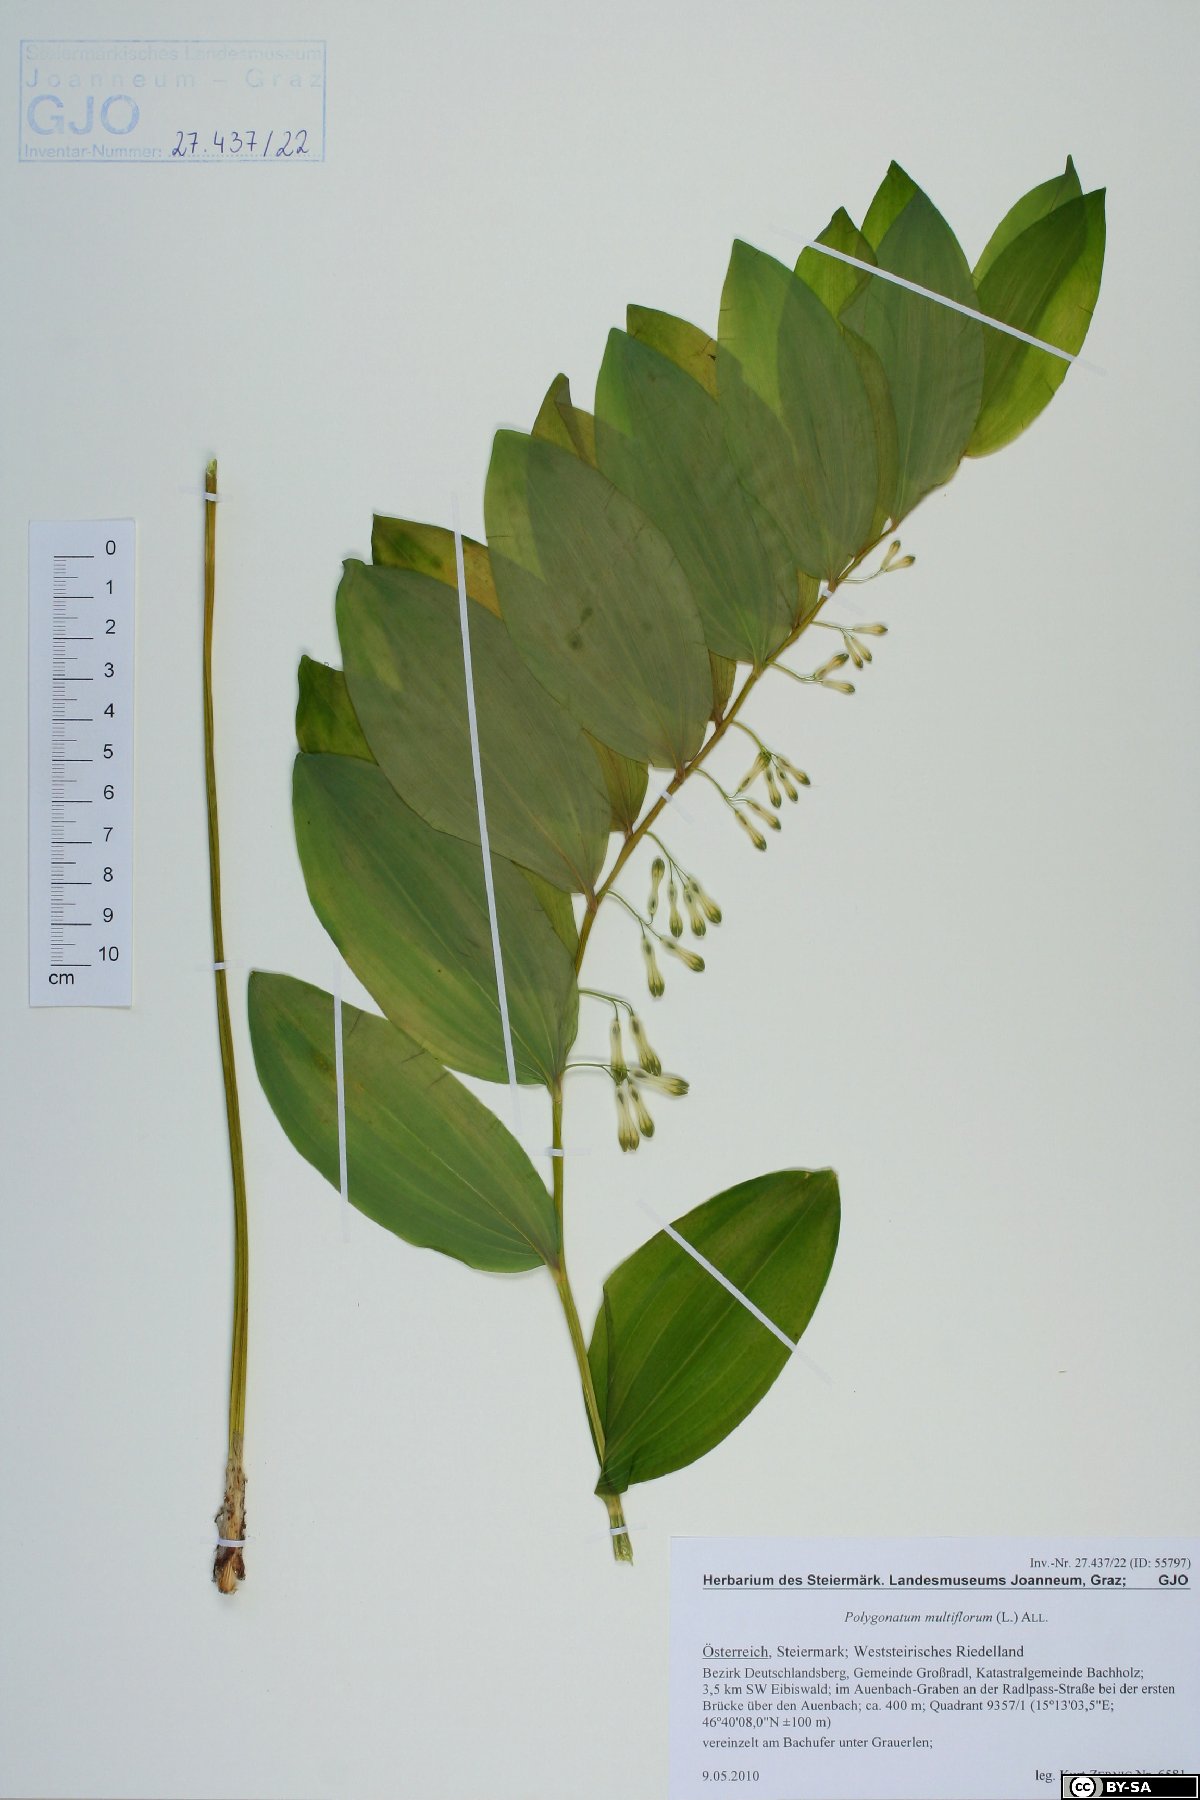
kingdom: Plantae
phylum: Tracheophyta
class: Liliopsida
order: Asparagales
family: Asparagaceae
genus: Polygonatum
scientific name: Polygonatum multiflorum
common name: Solomon's-seal
